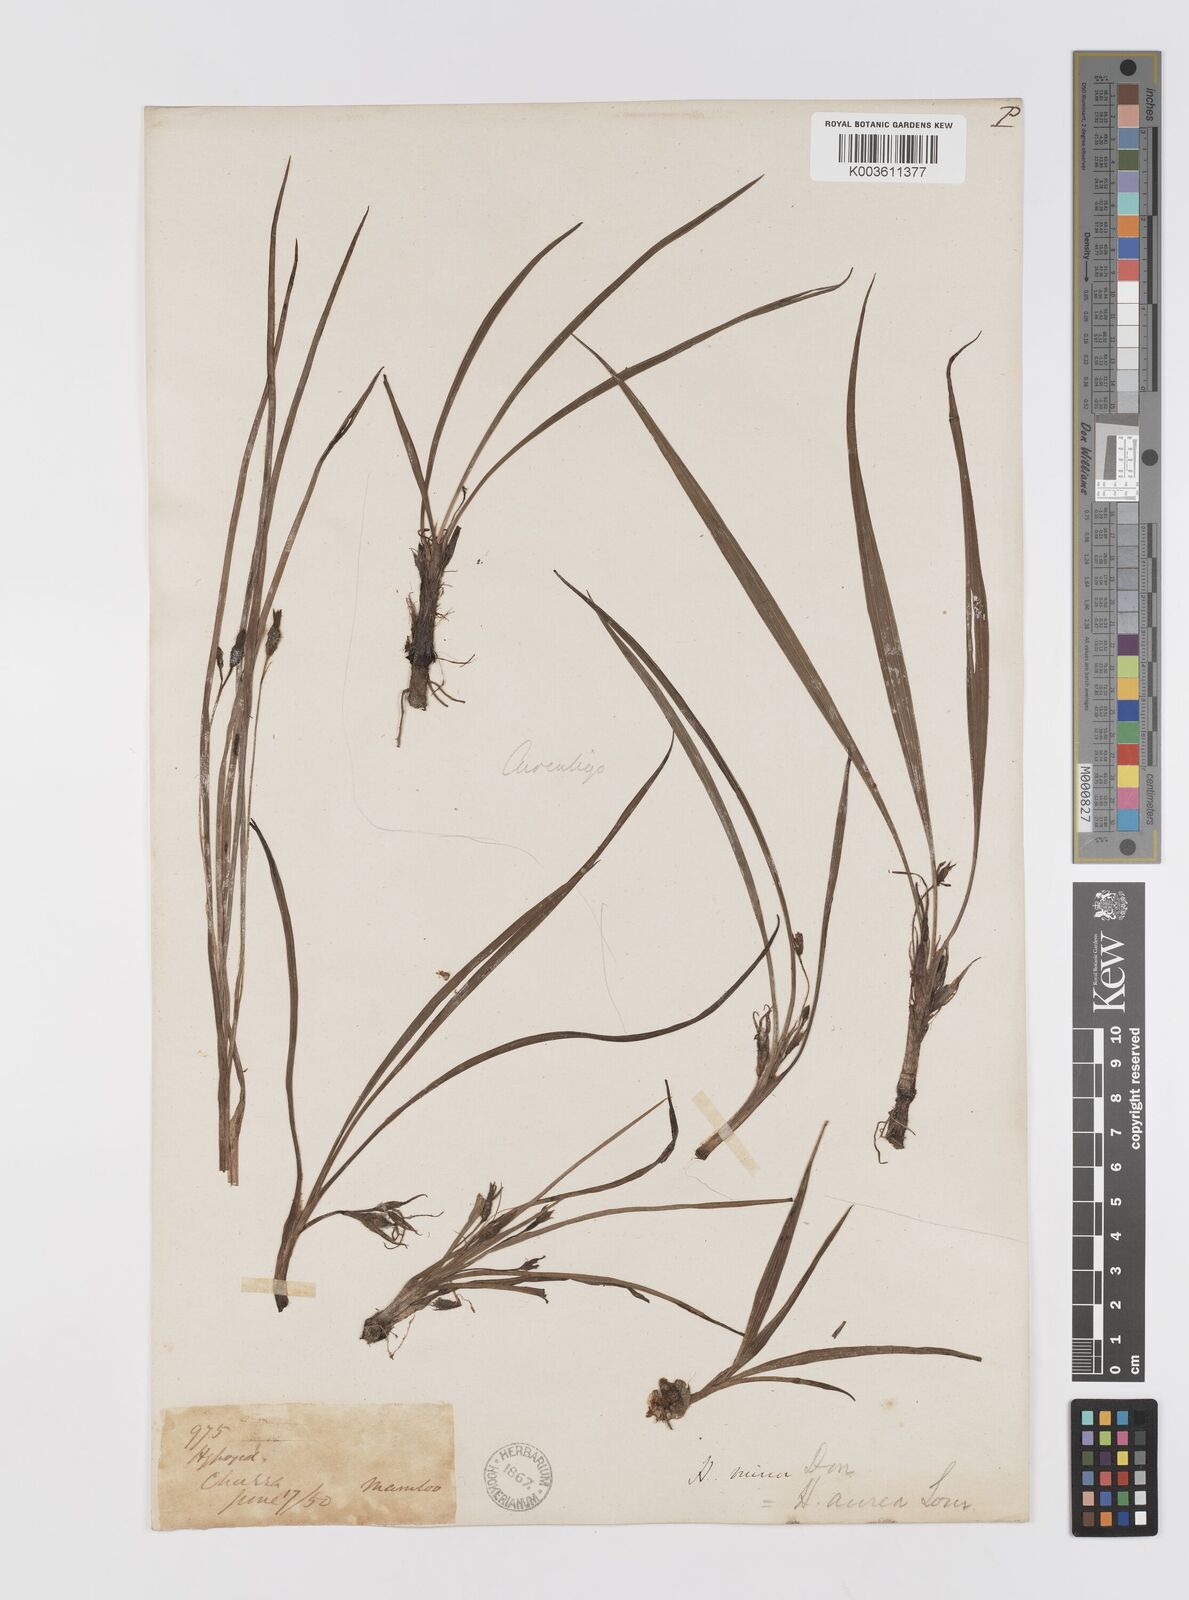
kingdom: Plantae
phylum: Tracheophyta
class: Liliopsida
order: Asparagales
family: Hypoxidaceae
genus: Hypoxis
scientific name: Hypoxis aurea
